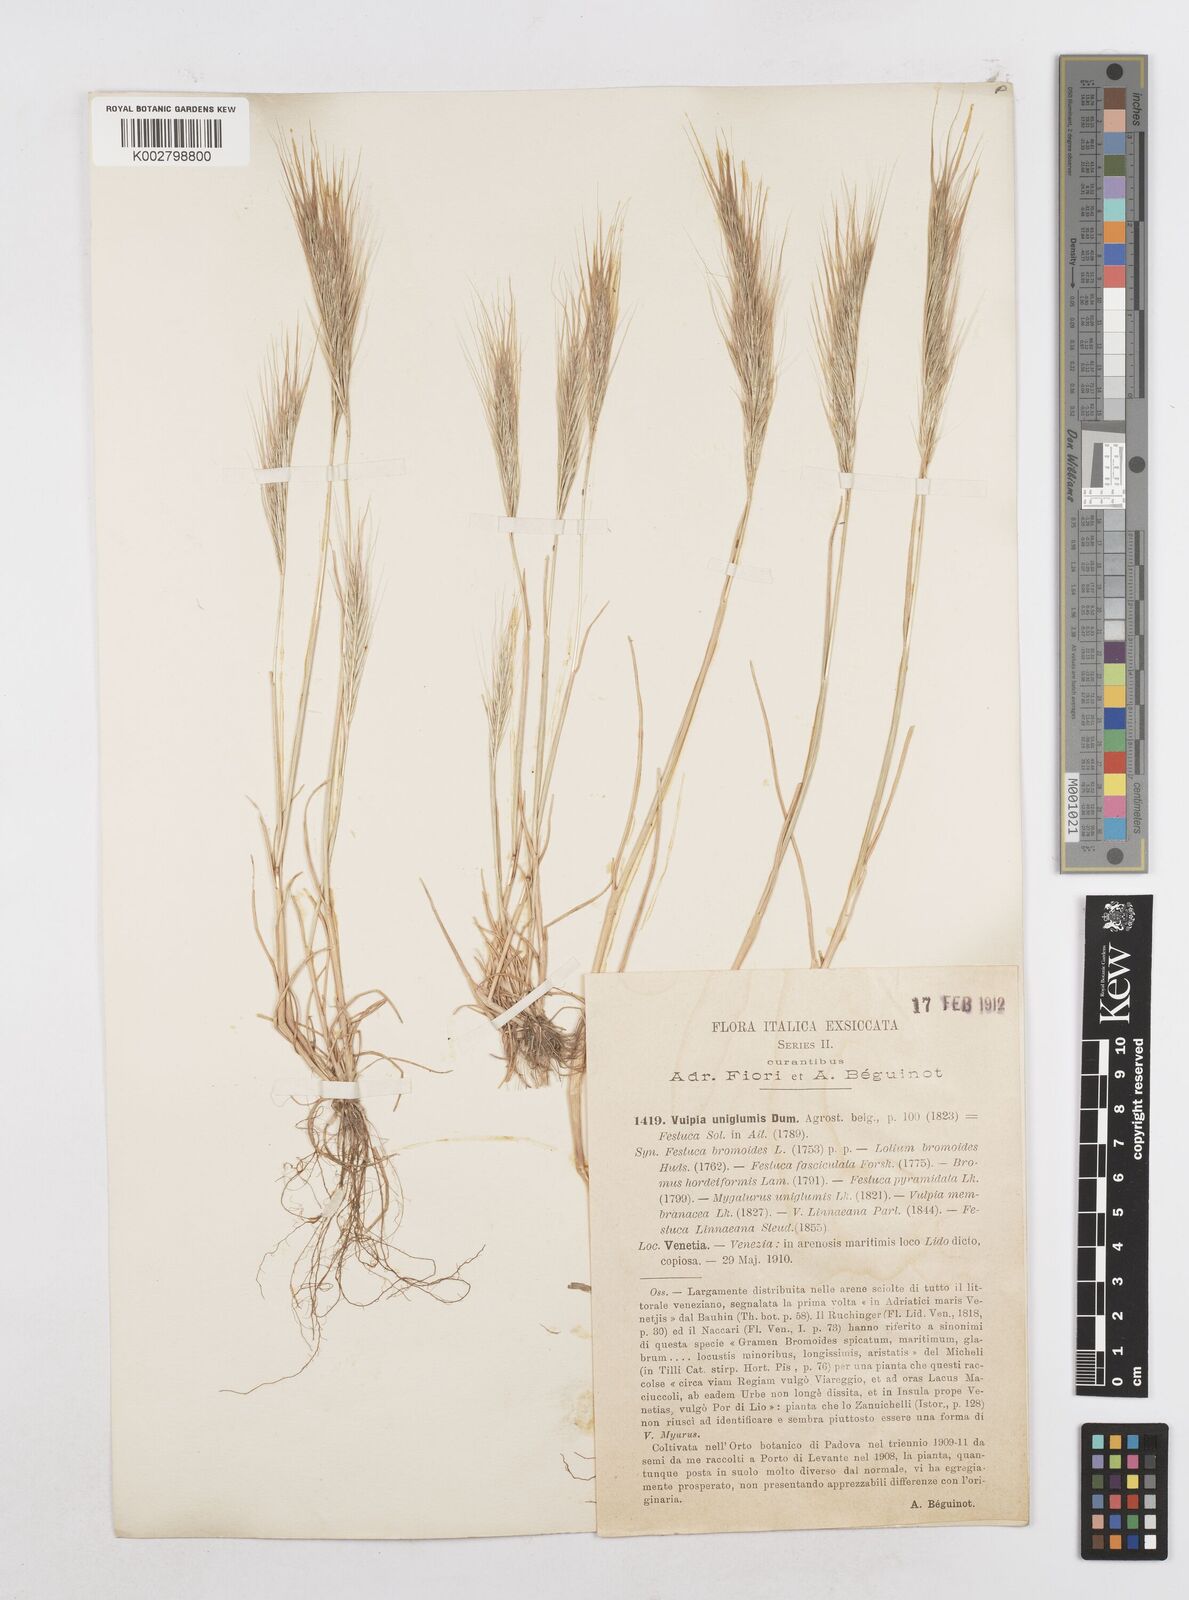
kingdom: Plantae
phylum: Tracheophyta
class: Liliopsida
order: Poales
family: Poaceae
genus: Festuca
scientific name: Festuca fasciculata
